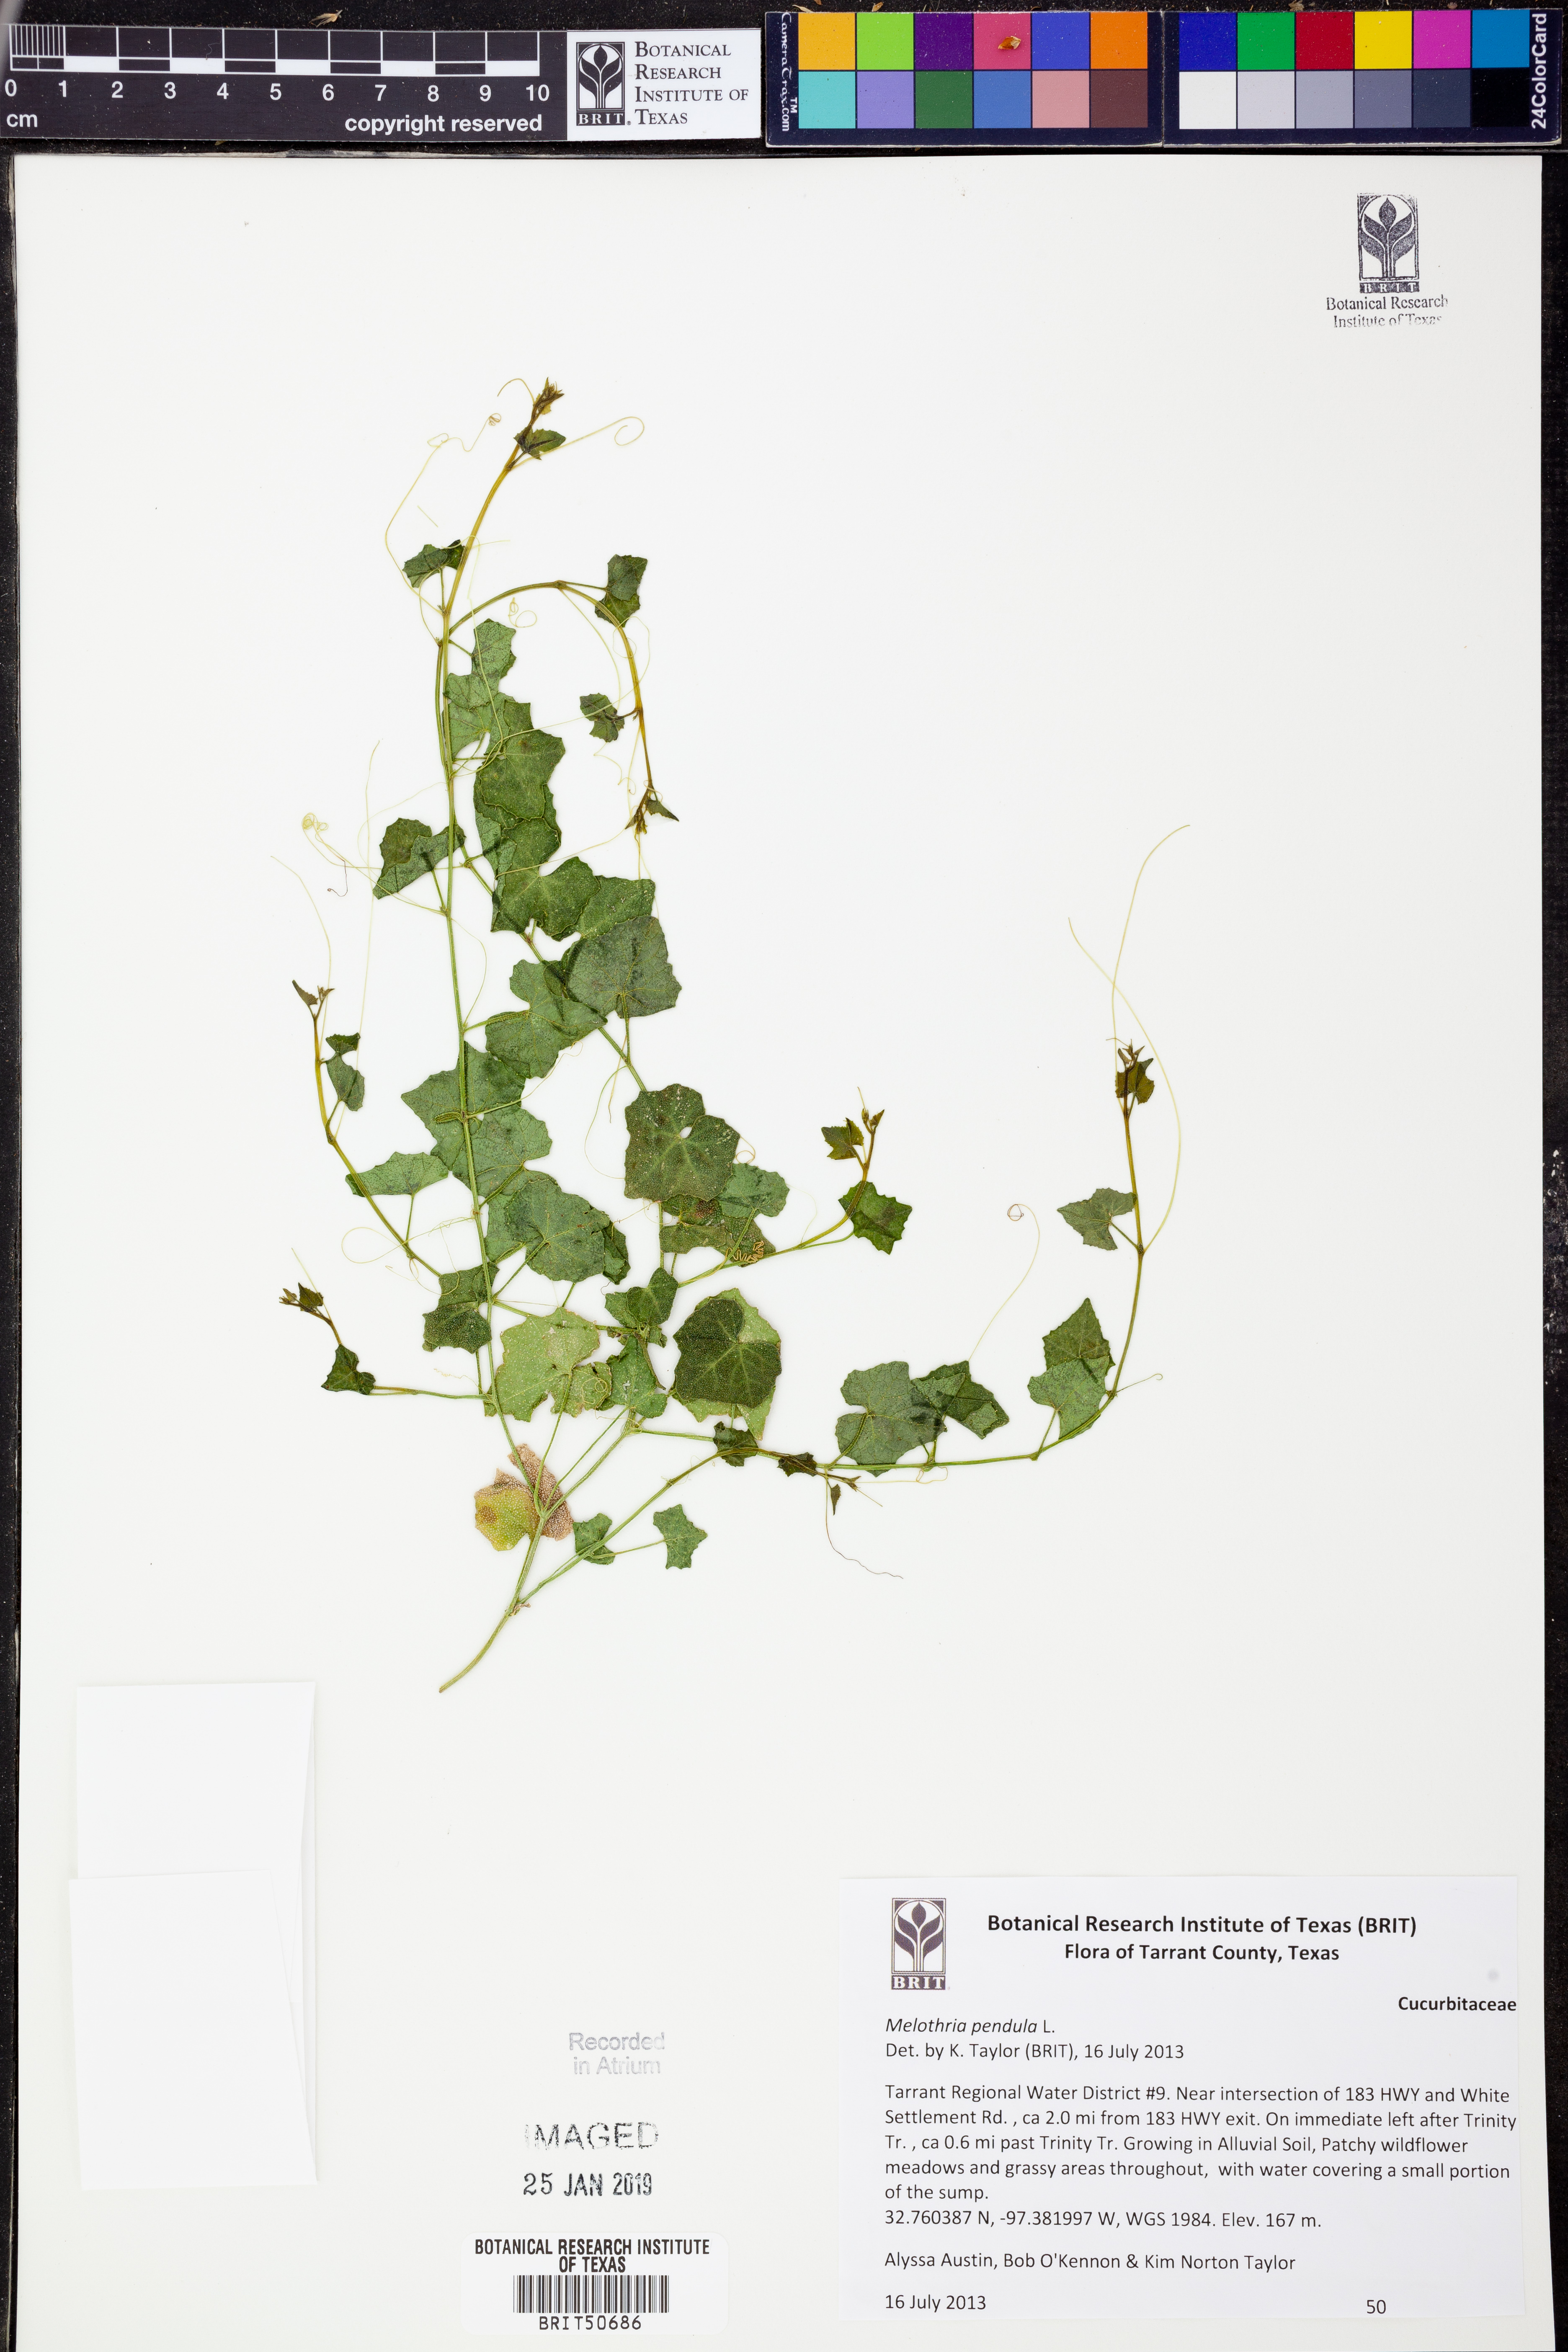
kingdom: Plantae
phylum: Tracheophyta
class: Magnoliopsida
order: Cucurbitales
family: Cucurbitaceae
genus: Melothria
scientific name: Melothria pendula
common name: Creeping-cucumber
